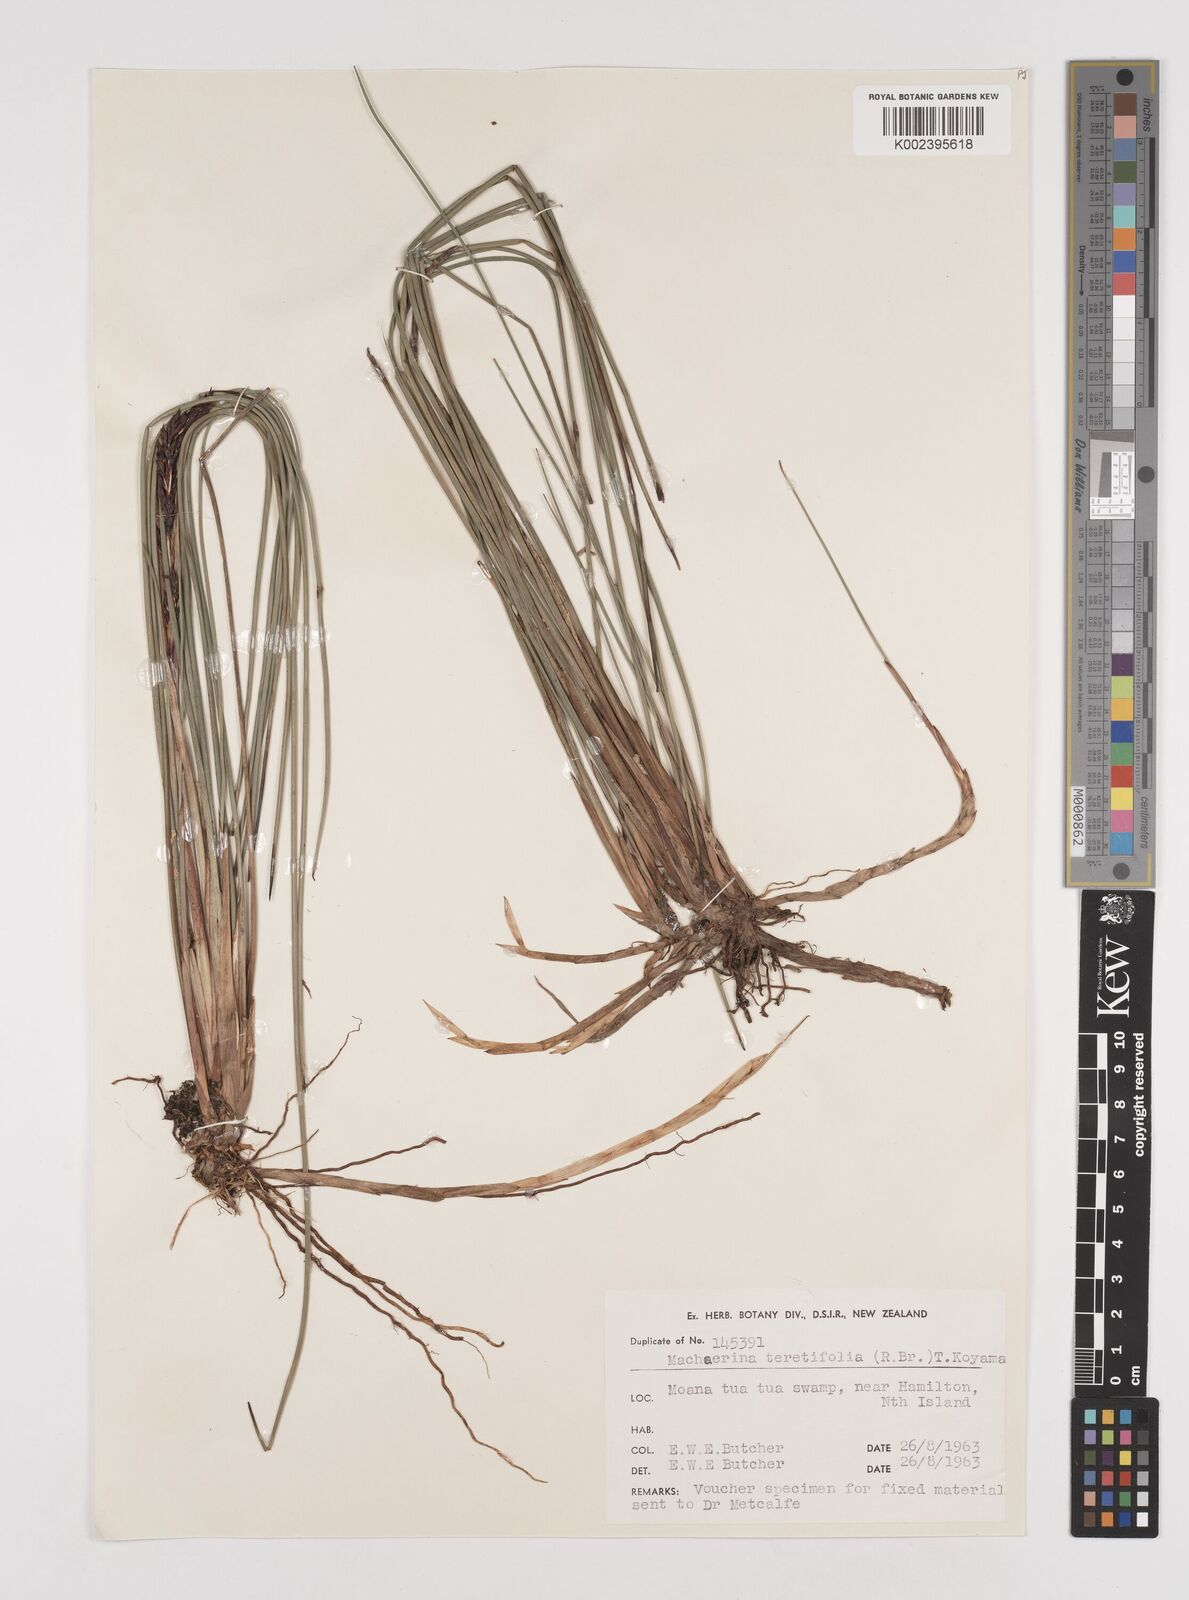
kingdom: Plantae
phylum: Tracheophyta
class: Liliopsida
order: Poales
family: Cyperaceae
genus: Machaerina
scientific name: Machaerina teretifolia
